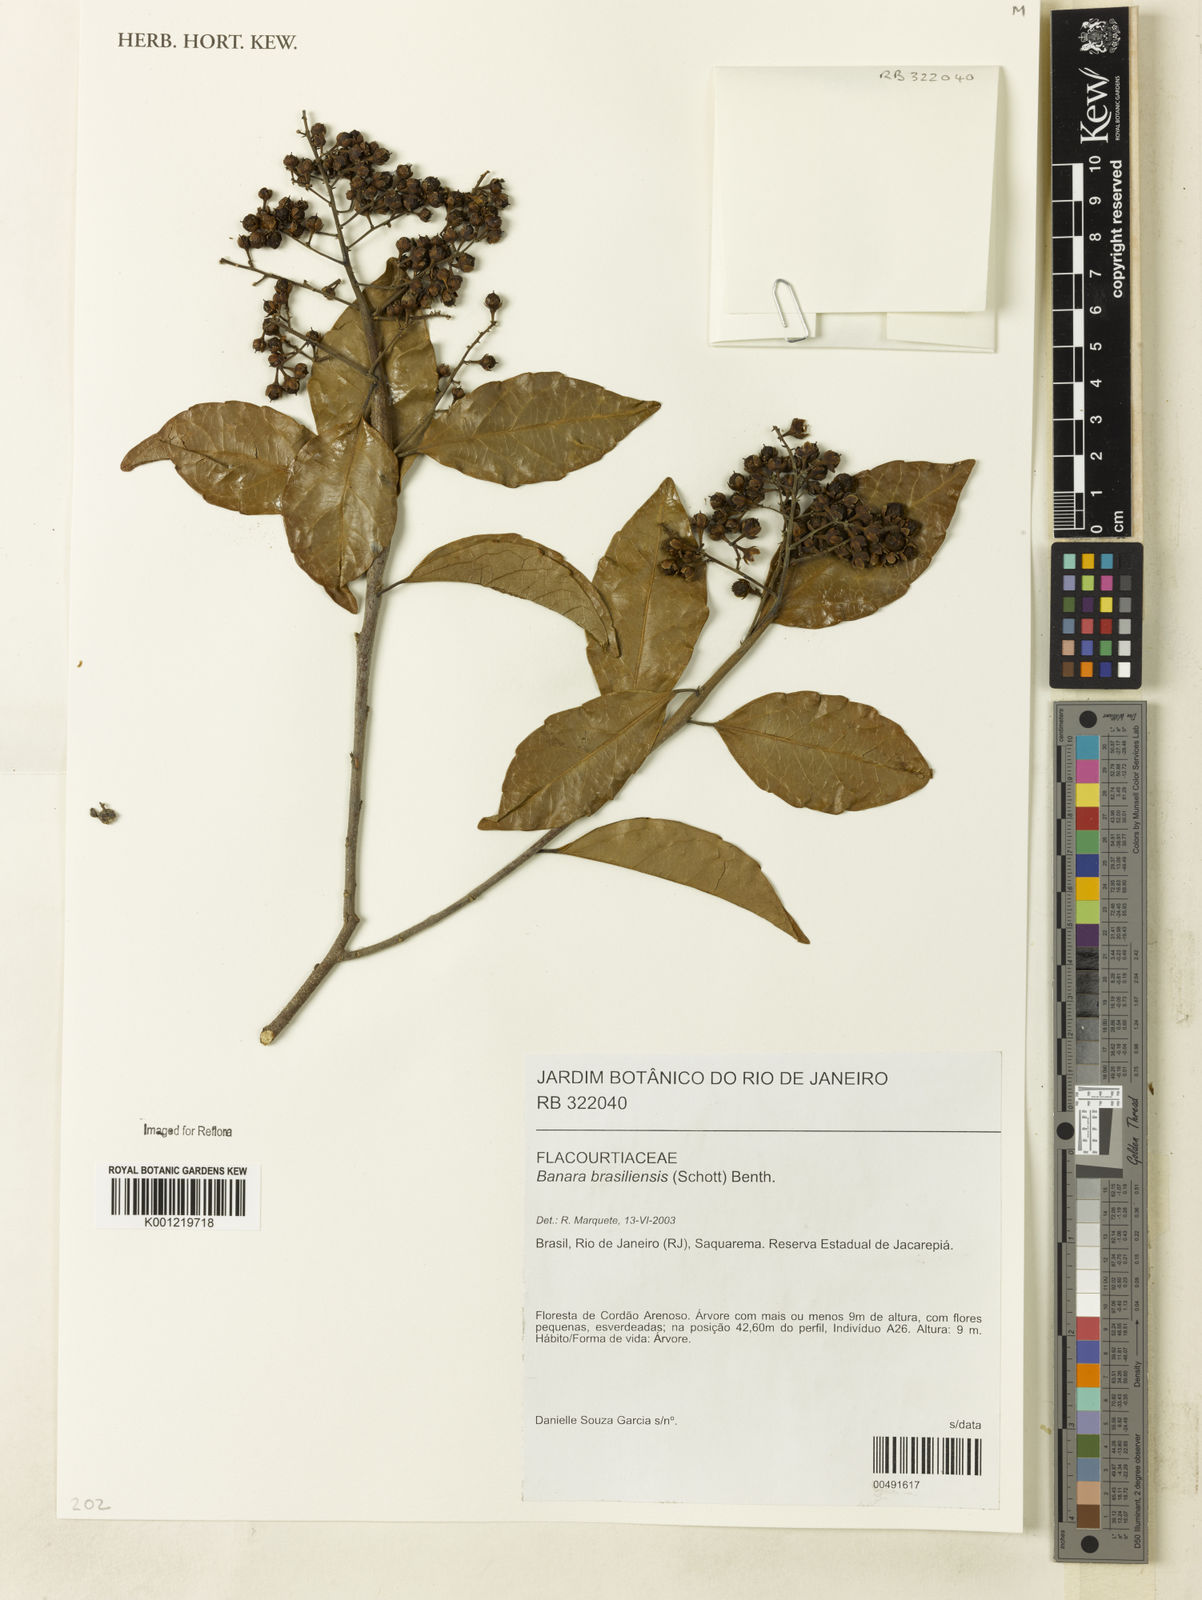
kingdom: Plantae
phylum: Tracheophyta
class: Magnoliopsida
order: Malpighiales
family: Salicaceae
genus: Banara
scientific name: Banara brasiliensis
